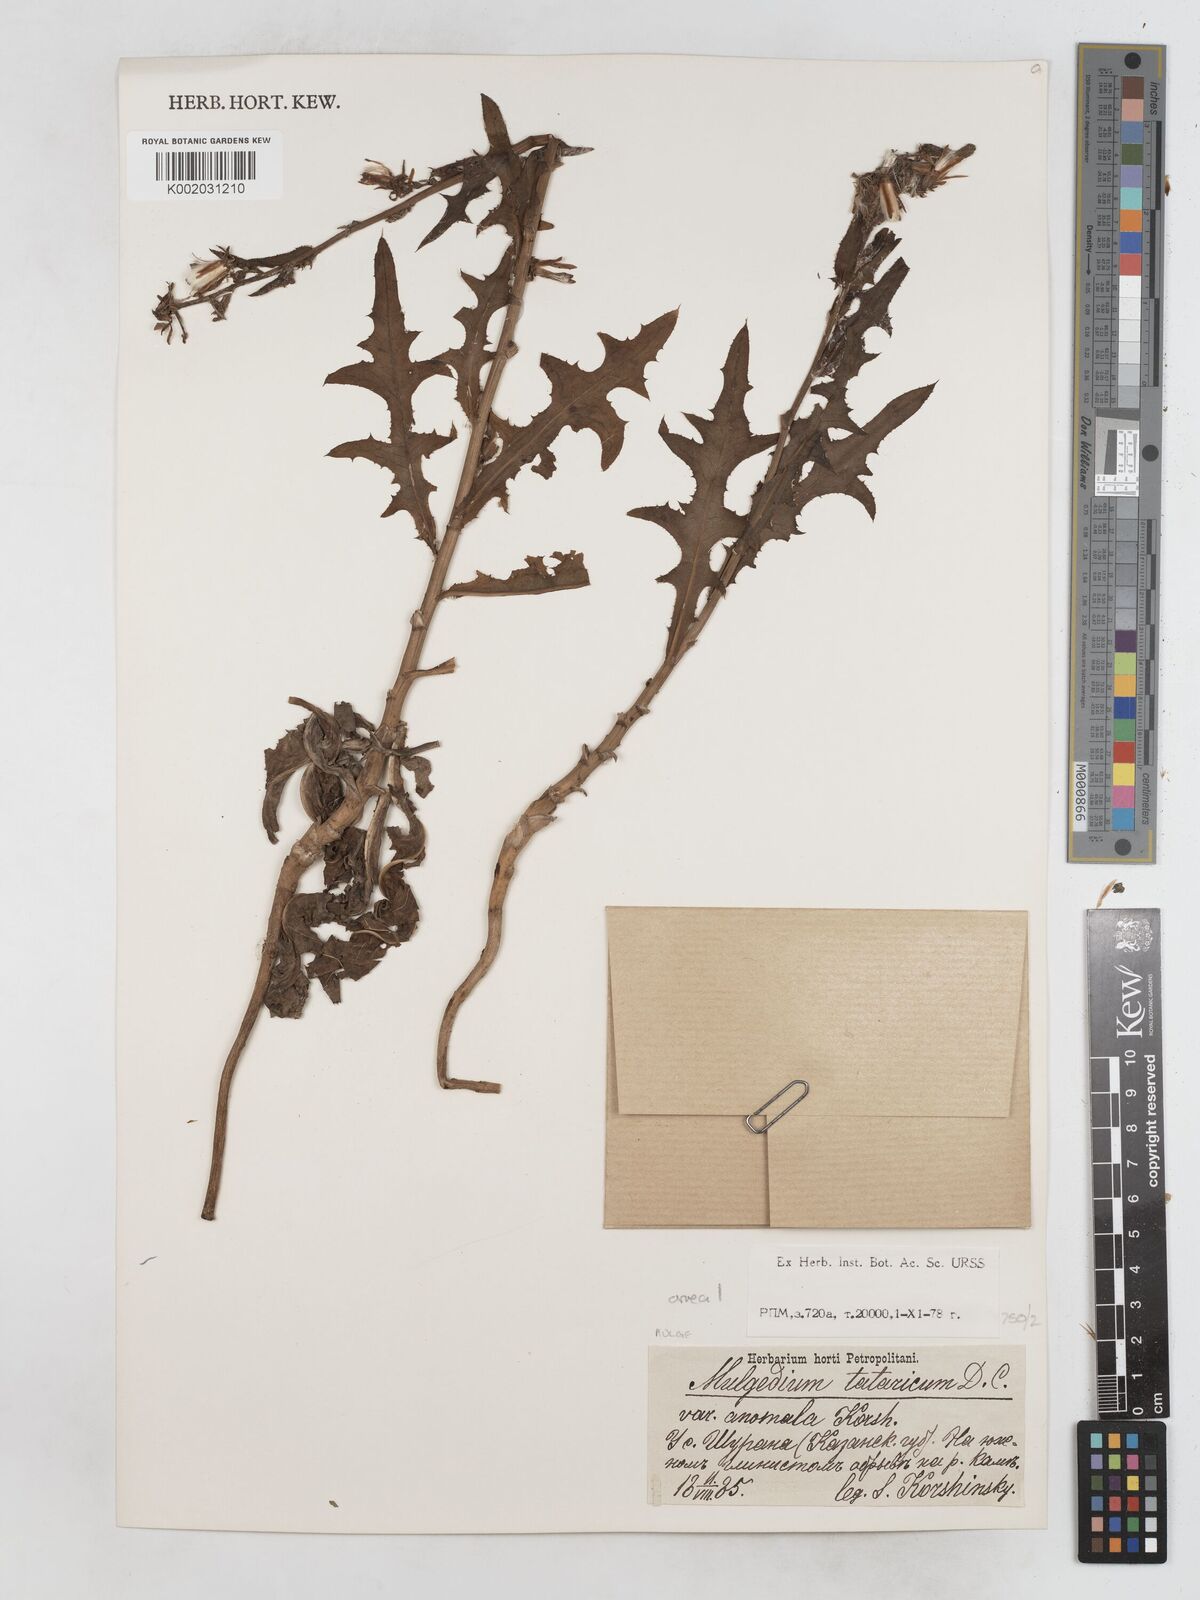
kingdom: Plantae
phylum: Tracheophyta
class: Magnoliopsida
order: Asterales
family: Asteraceae
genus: Lactuca
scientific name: Lactuca tatarica
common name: Blue lettuce
